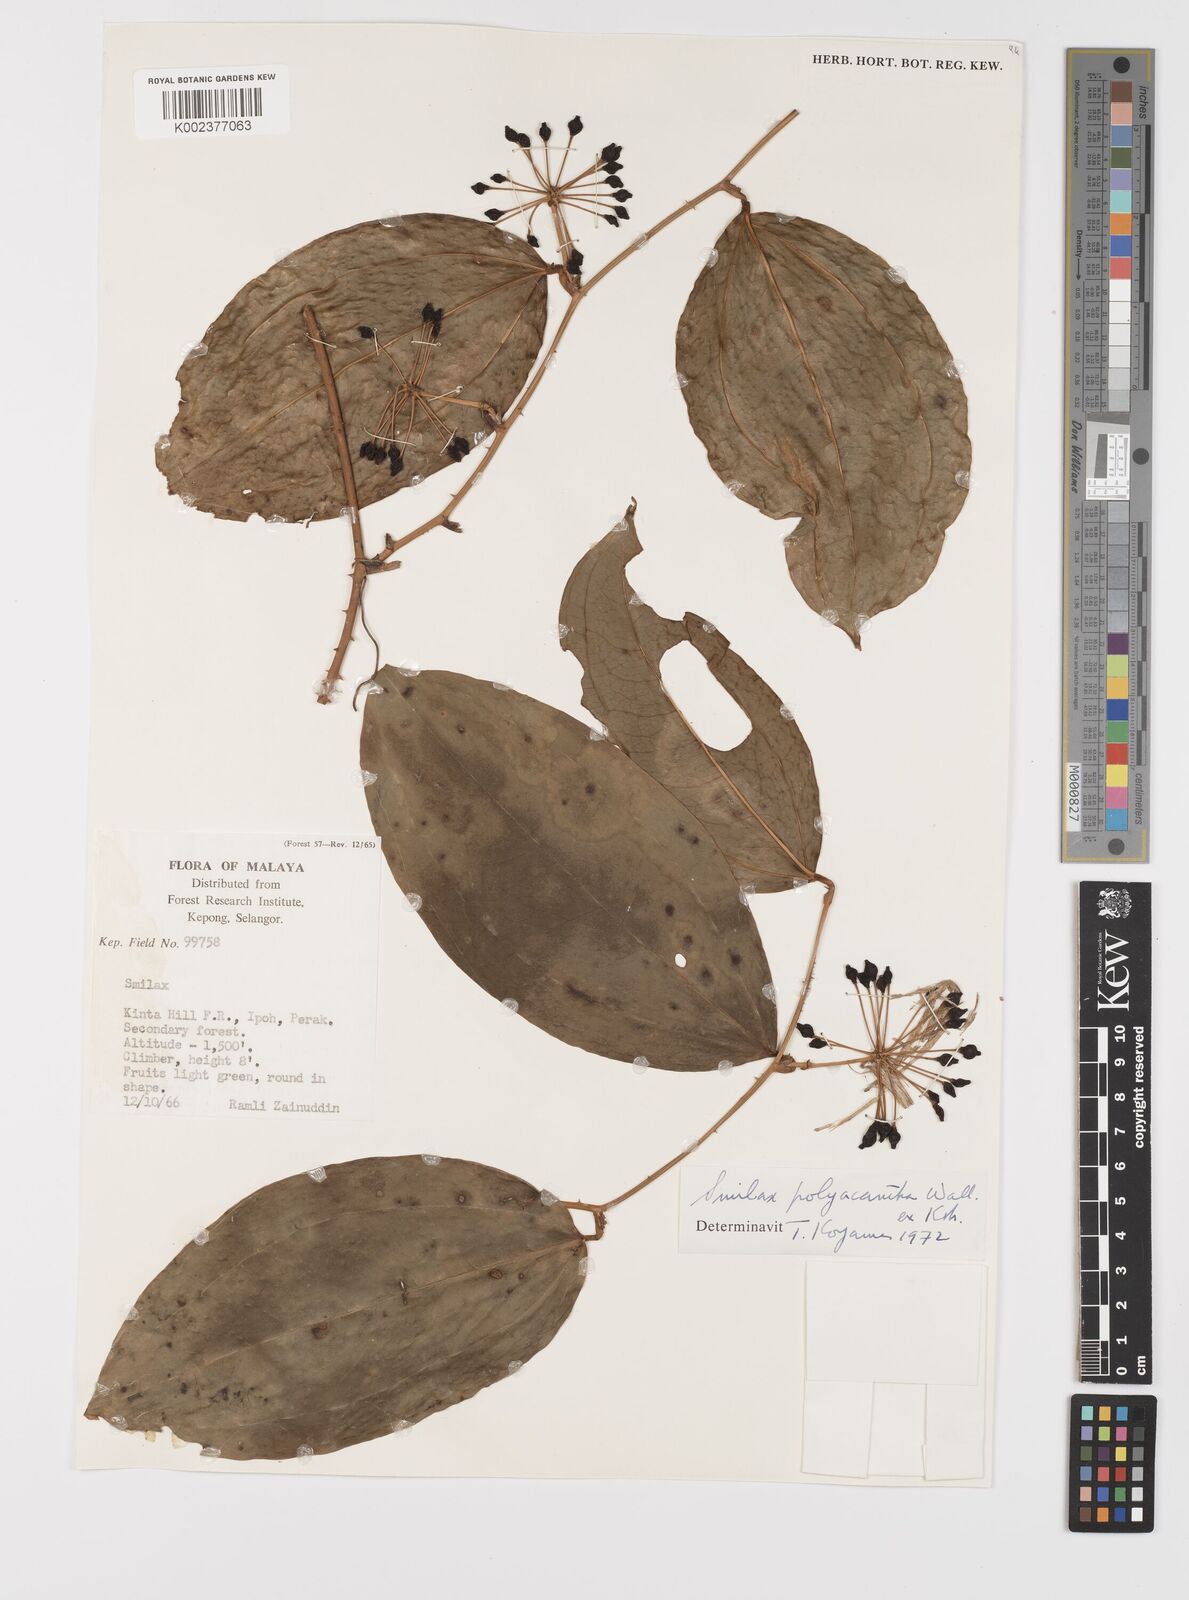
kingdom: Plantae
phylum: Tracheophyta
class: Liliopsida
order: Liliales
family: Smilacaceae
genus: Smilax
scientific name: Smilax polyacantha
